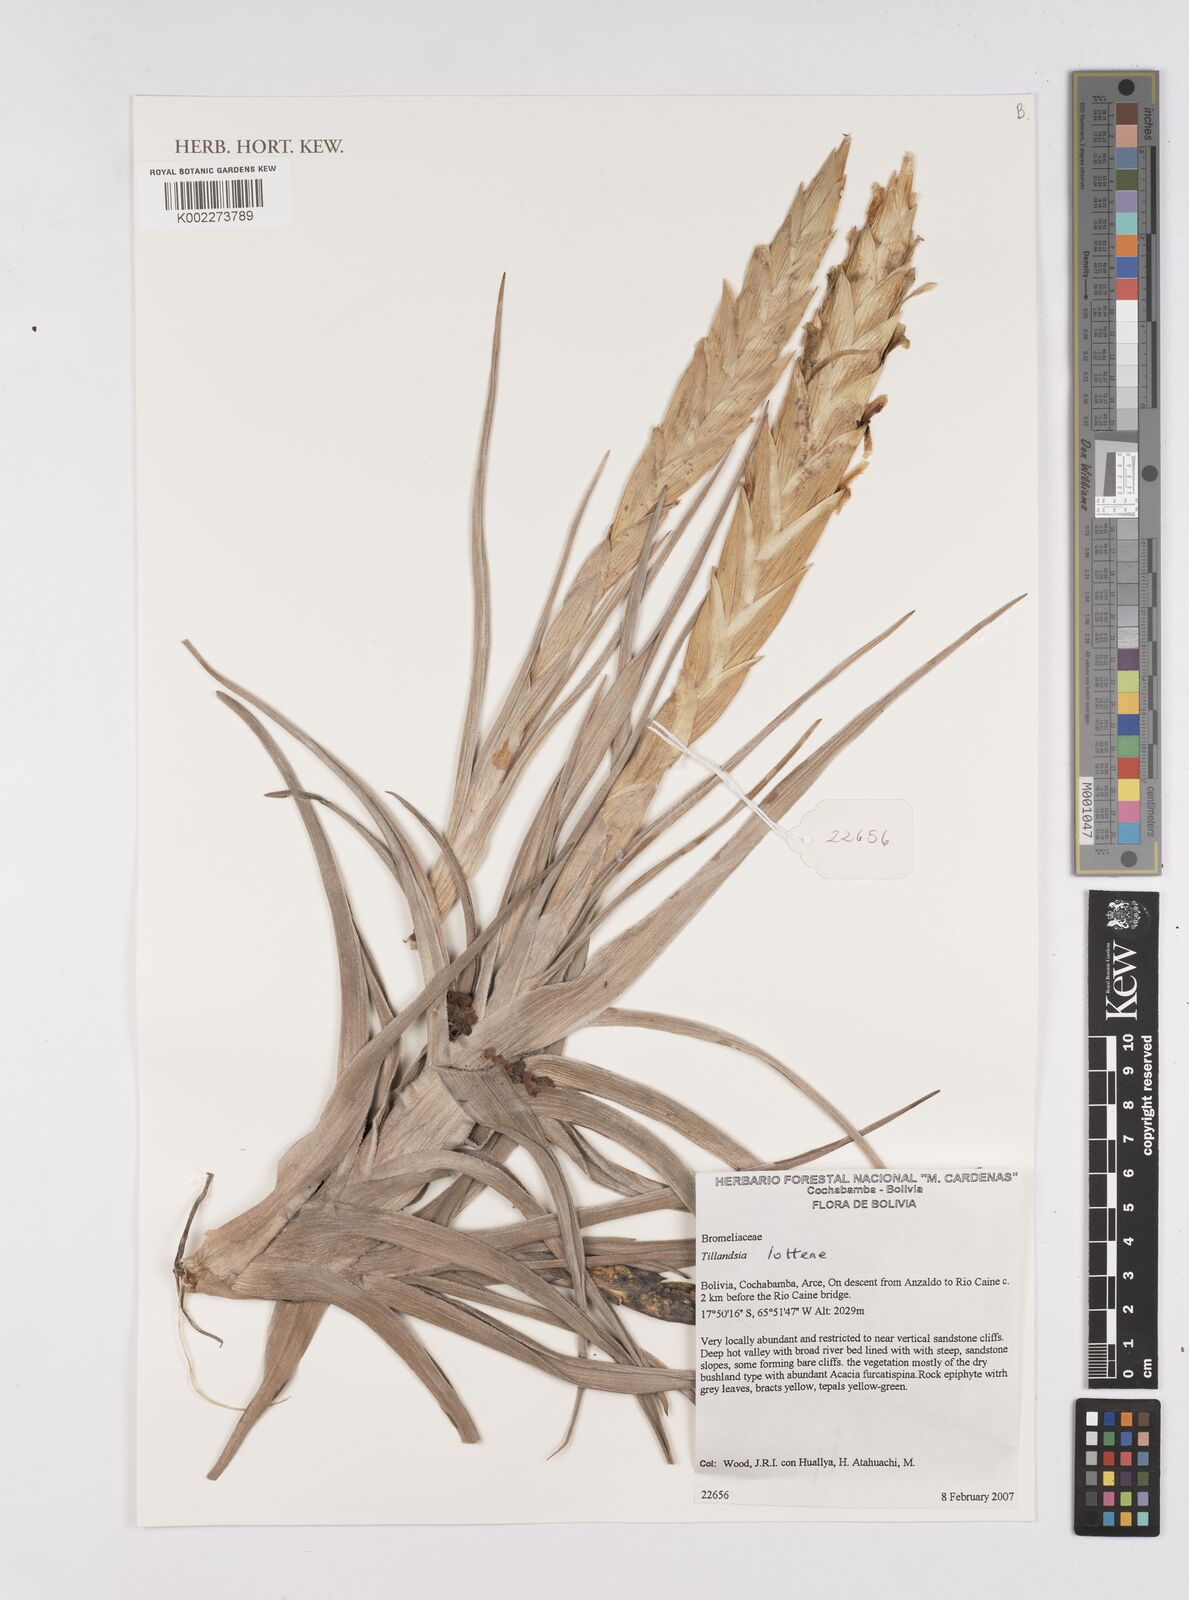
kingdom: Plantae
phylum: Tracheophyta
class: Liliopsida
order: Poales
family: Bromeliaceae
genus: Tillandsia
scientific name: Tillandsia lotteae
